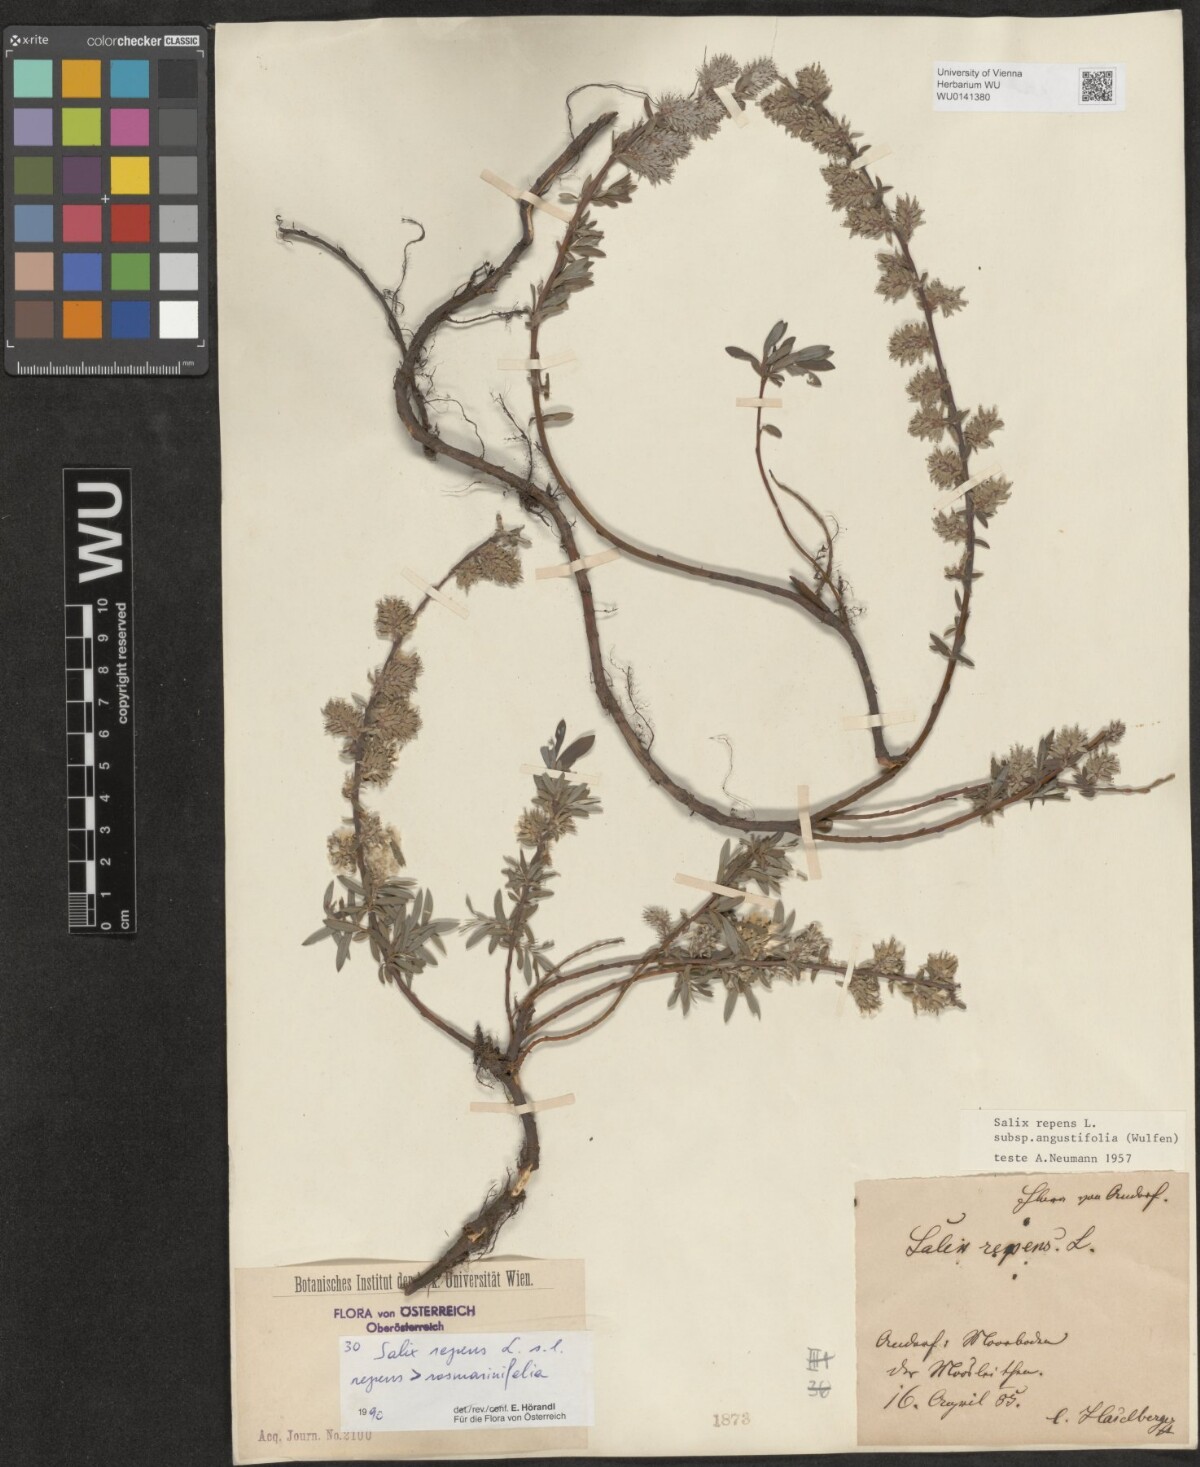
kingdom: Plantae
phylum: Tracheophyta
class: Magnoliopsida
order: Malpighiales
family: Salicaceae
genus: Salix
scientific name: Salix repens
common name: Creeping willow
